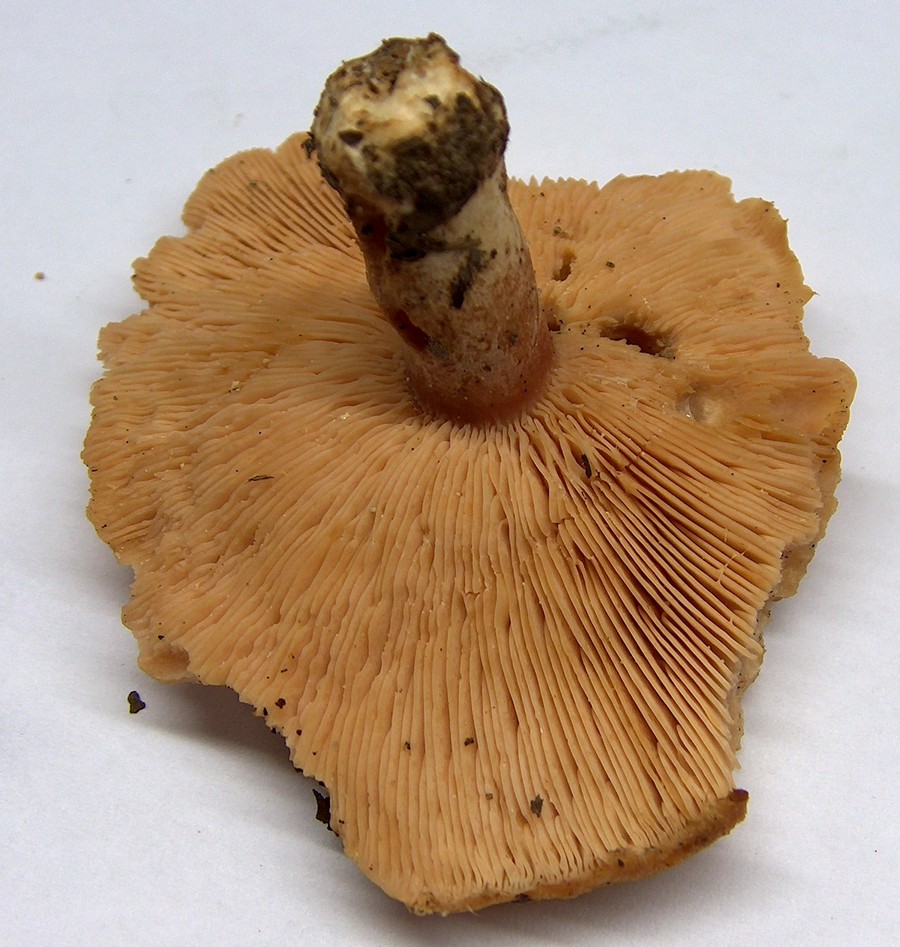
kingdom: Fungi
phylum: Basidiomycota
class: Agaricomycetes
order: Russulales
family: Russulaceae
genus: Lactarius
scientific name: Lactarius torminosus
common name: skægget mælkehat
